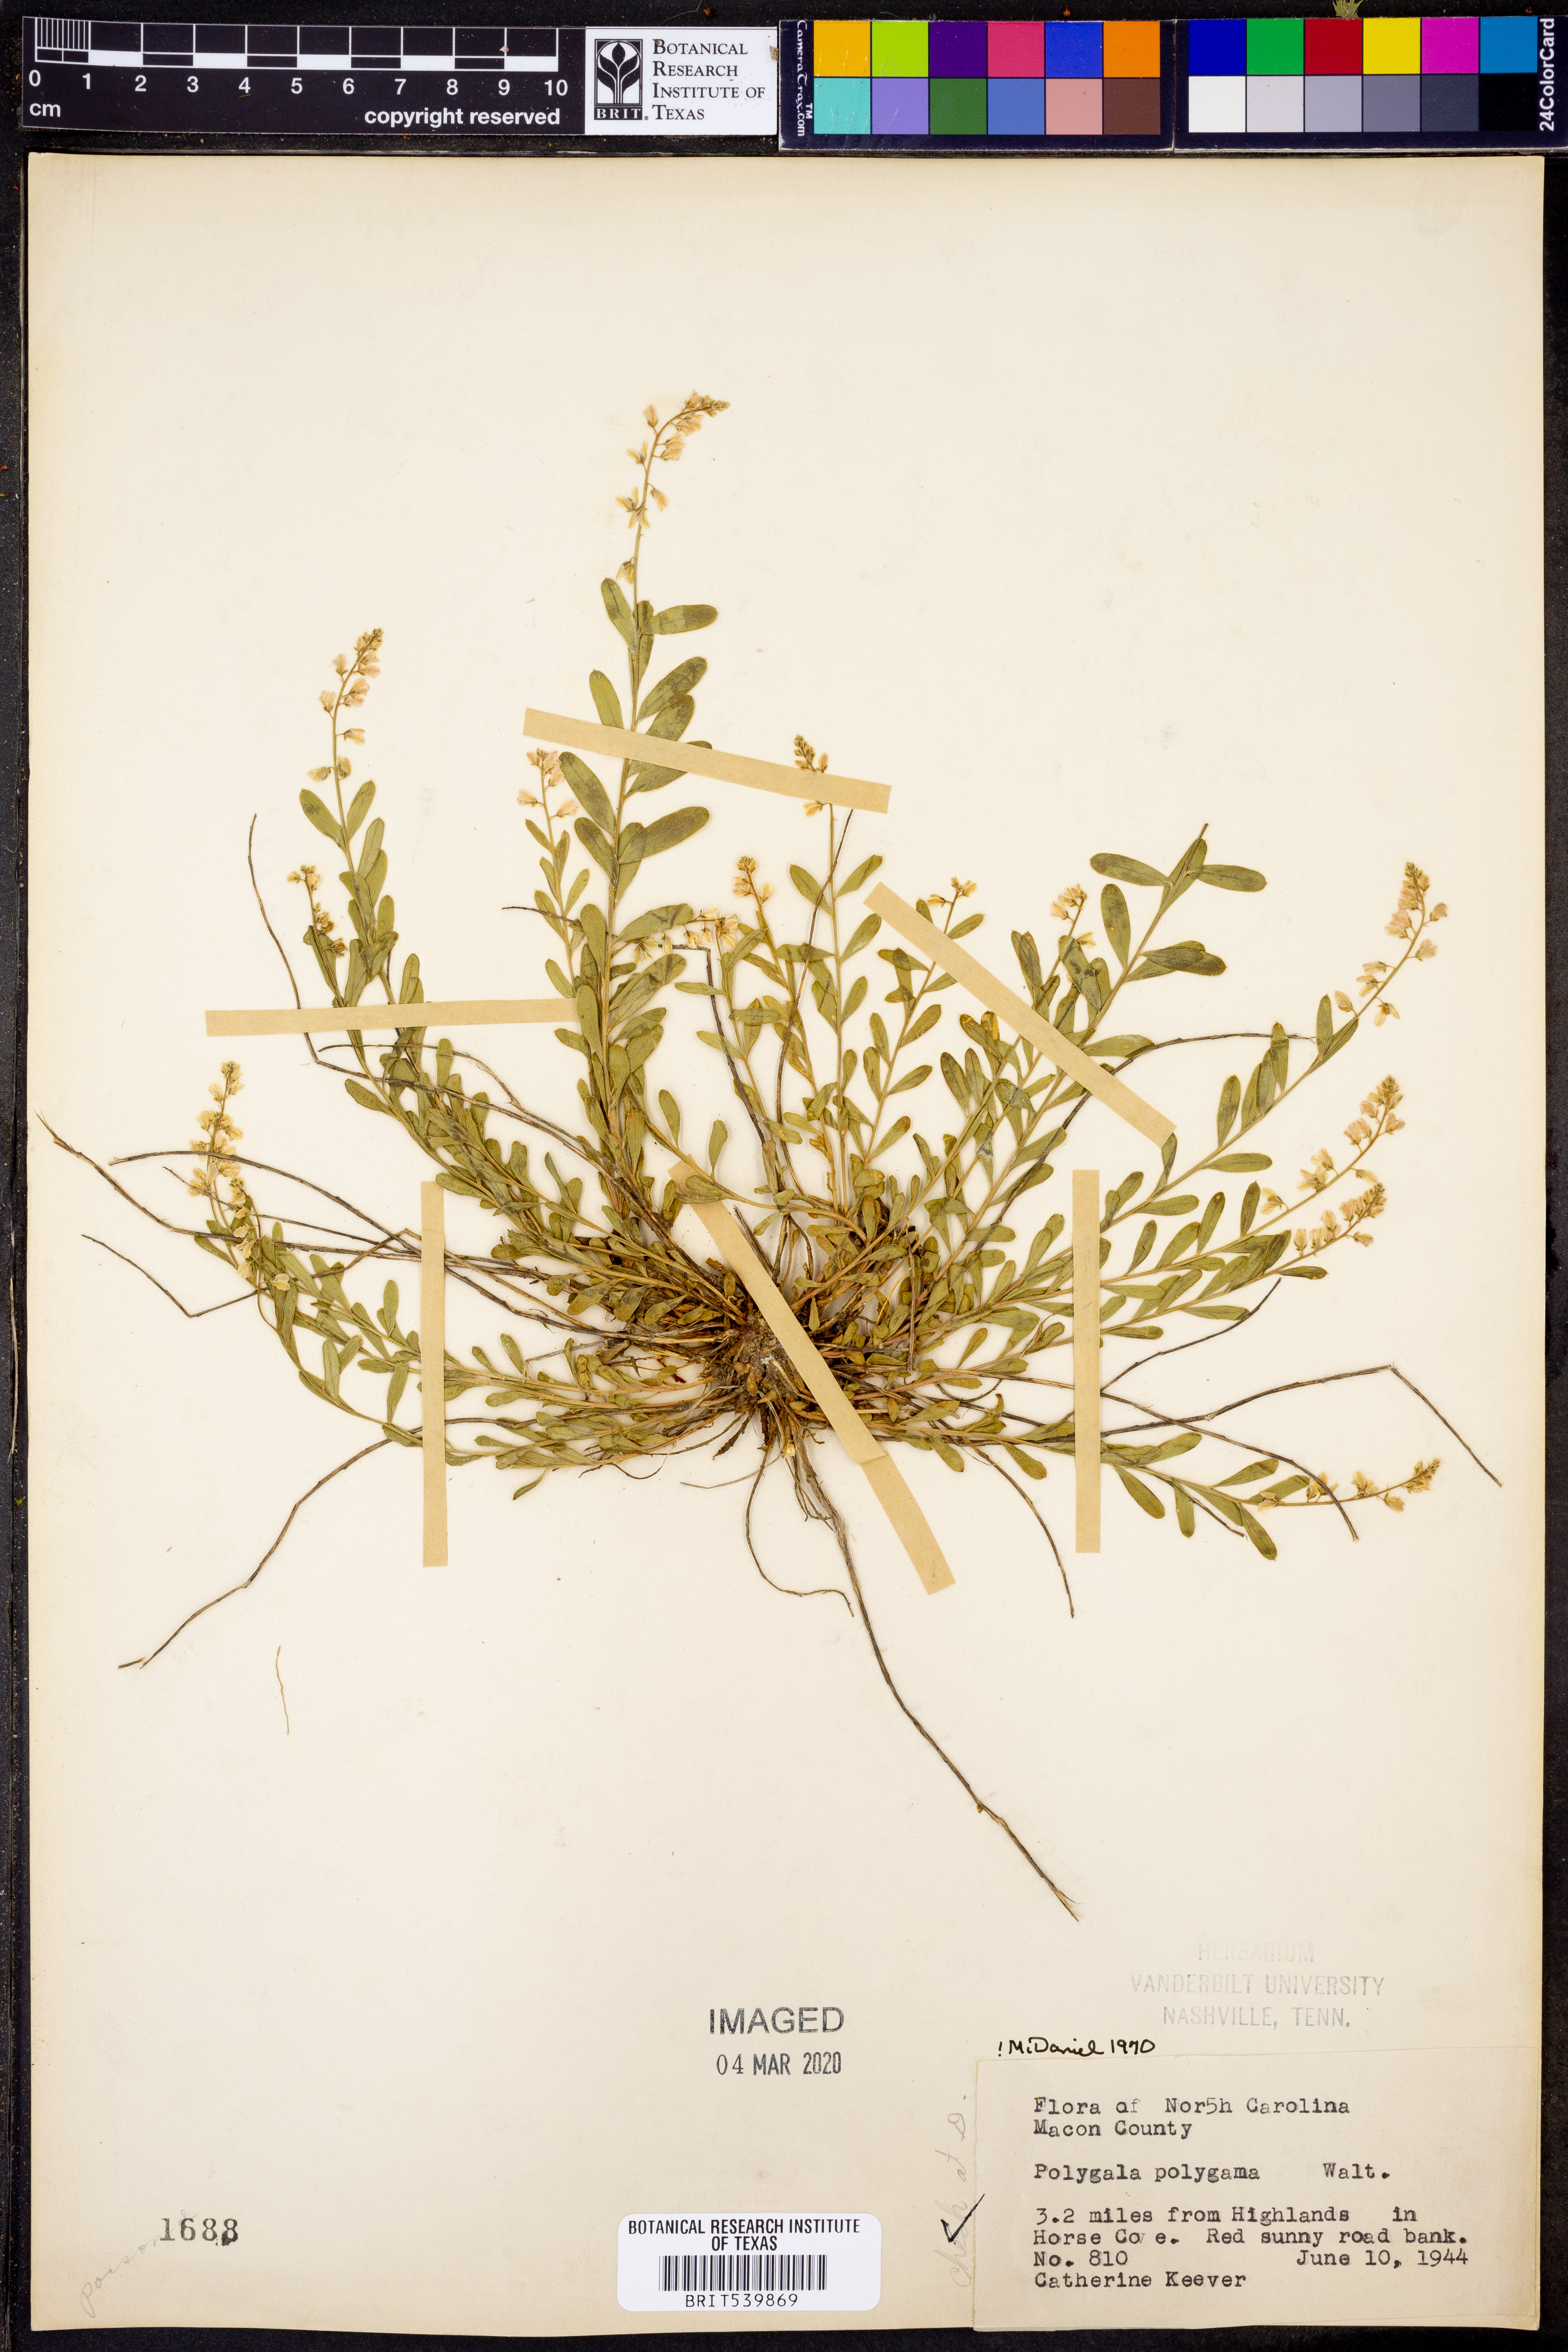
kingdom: Plantae
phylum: Tracheophyta
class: Magnoliopsida
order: Fabales
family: Polygalaceae
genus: Polygala
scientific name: Polygala polygama
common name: Bitter milkwort
